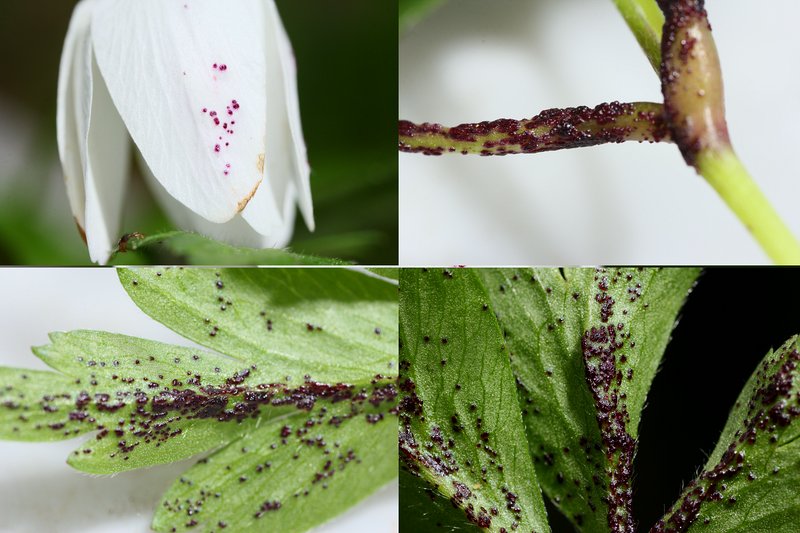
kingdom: Fungi
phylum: Chytridiomycota
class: Chytridiomycetes
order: Chytridiales
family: Synchytriaceae
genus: Synchytrium
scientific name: Synchytrium anemones
